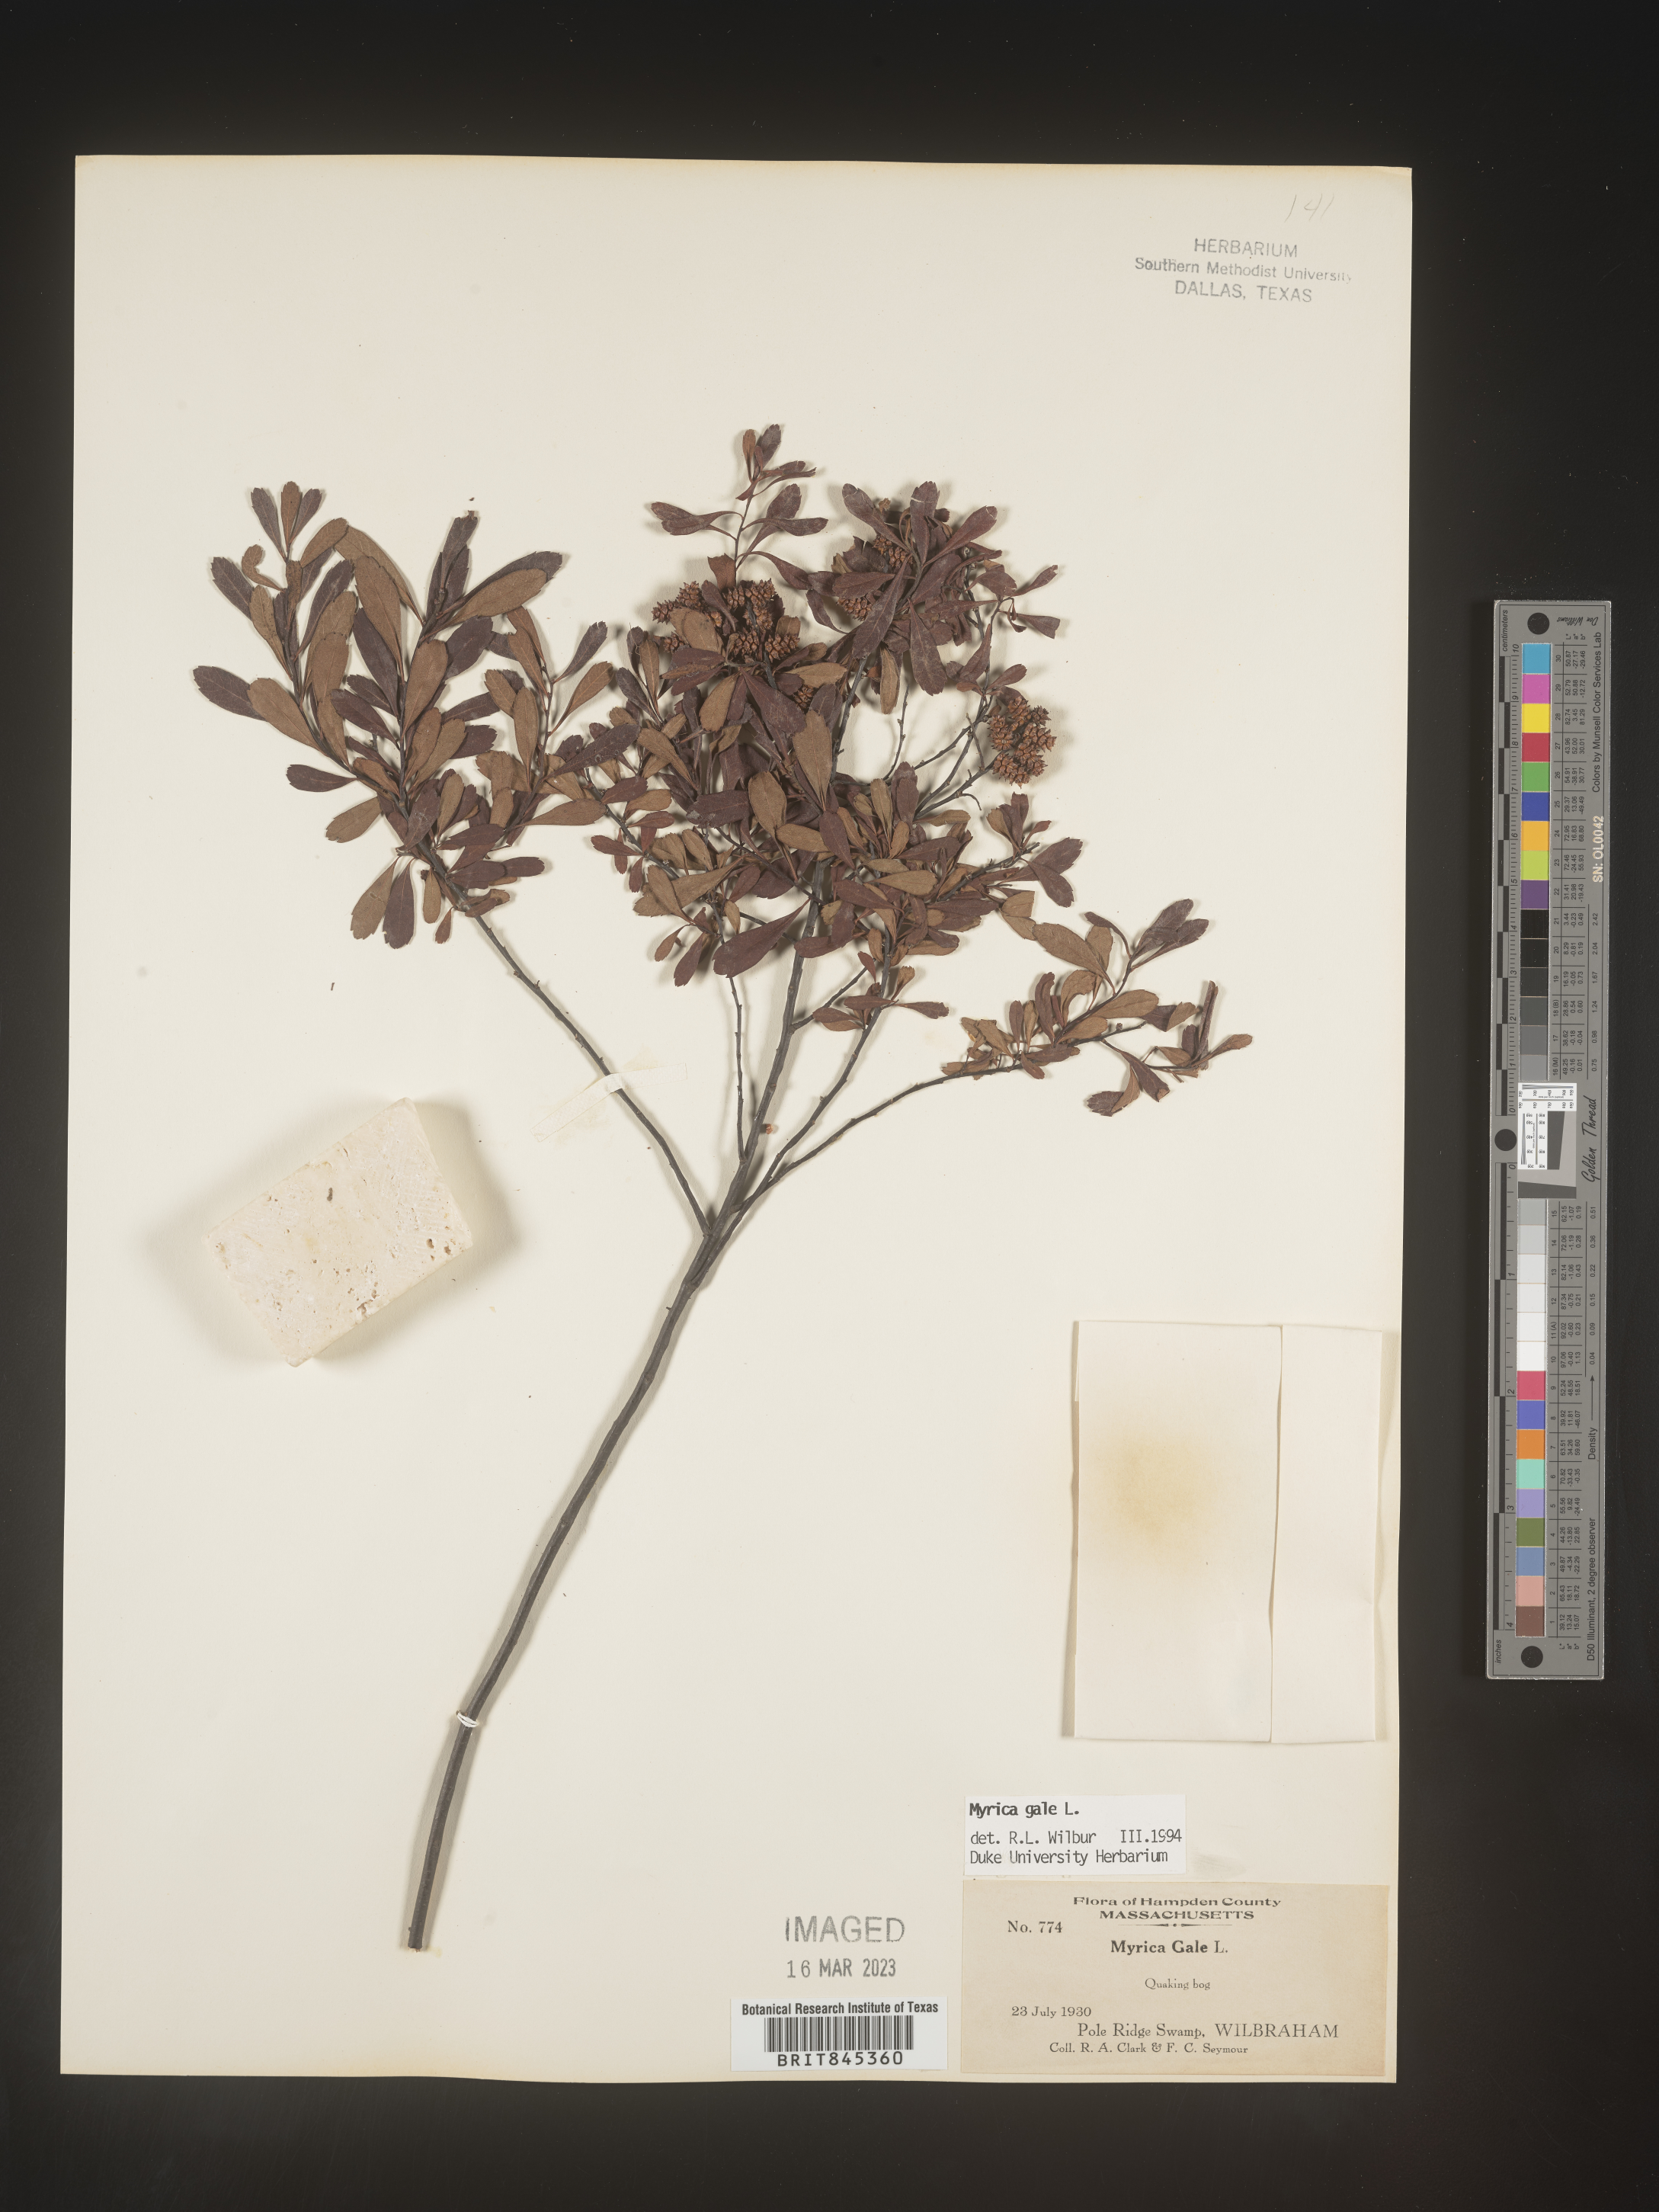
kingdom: Plantae
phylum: Tracheophyta
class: Magnoliopsida
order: Fagales
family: Myricaceae
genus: Myrica
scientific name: Myrica gale
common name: Sweet gale
